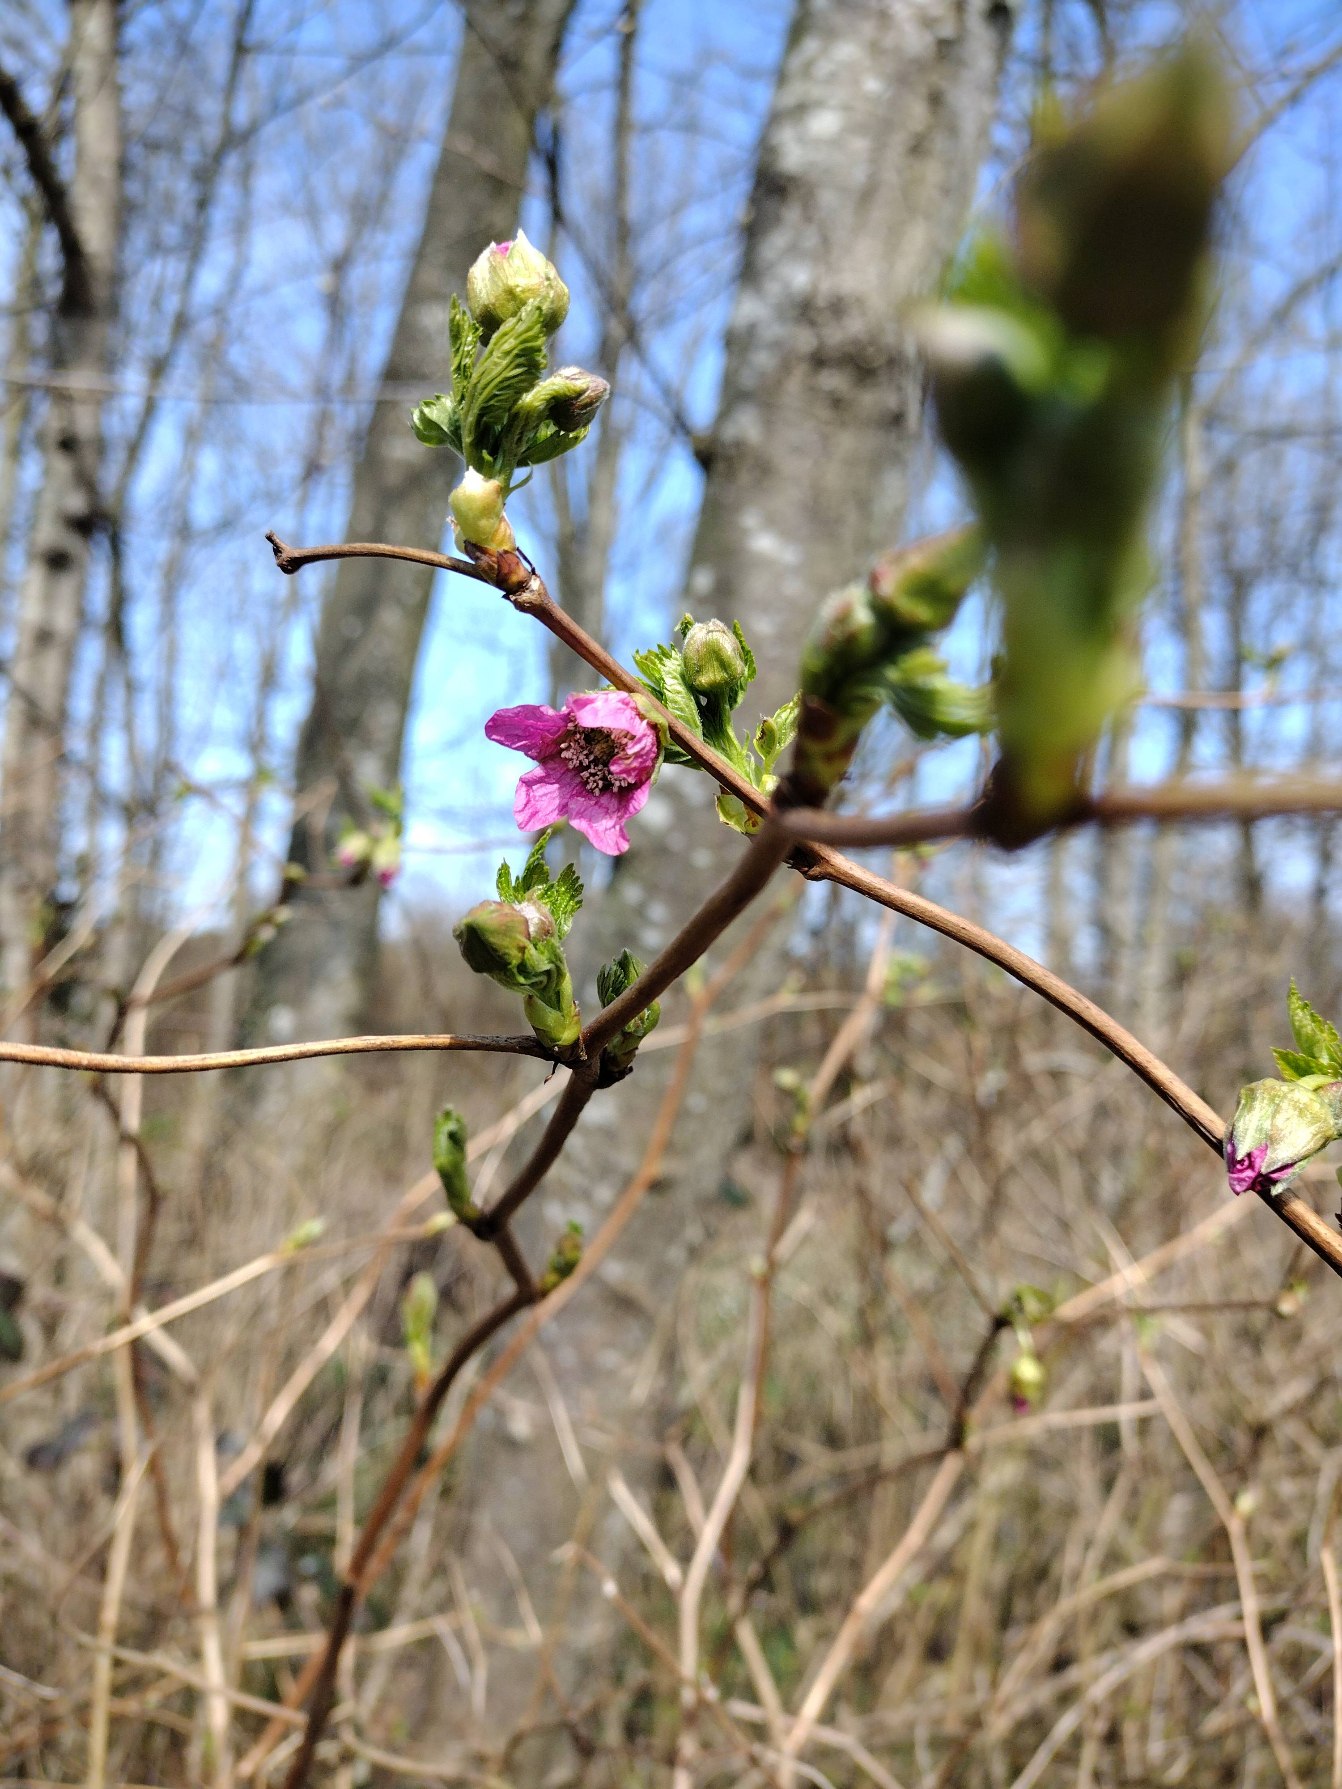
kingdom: Plantae
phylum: Tracheophyta
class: Magnoliopsida
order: Rosales
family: Rosaceae
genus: Rubus
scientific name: Rubus spectabilis
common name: Laksebær
